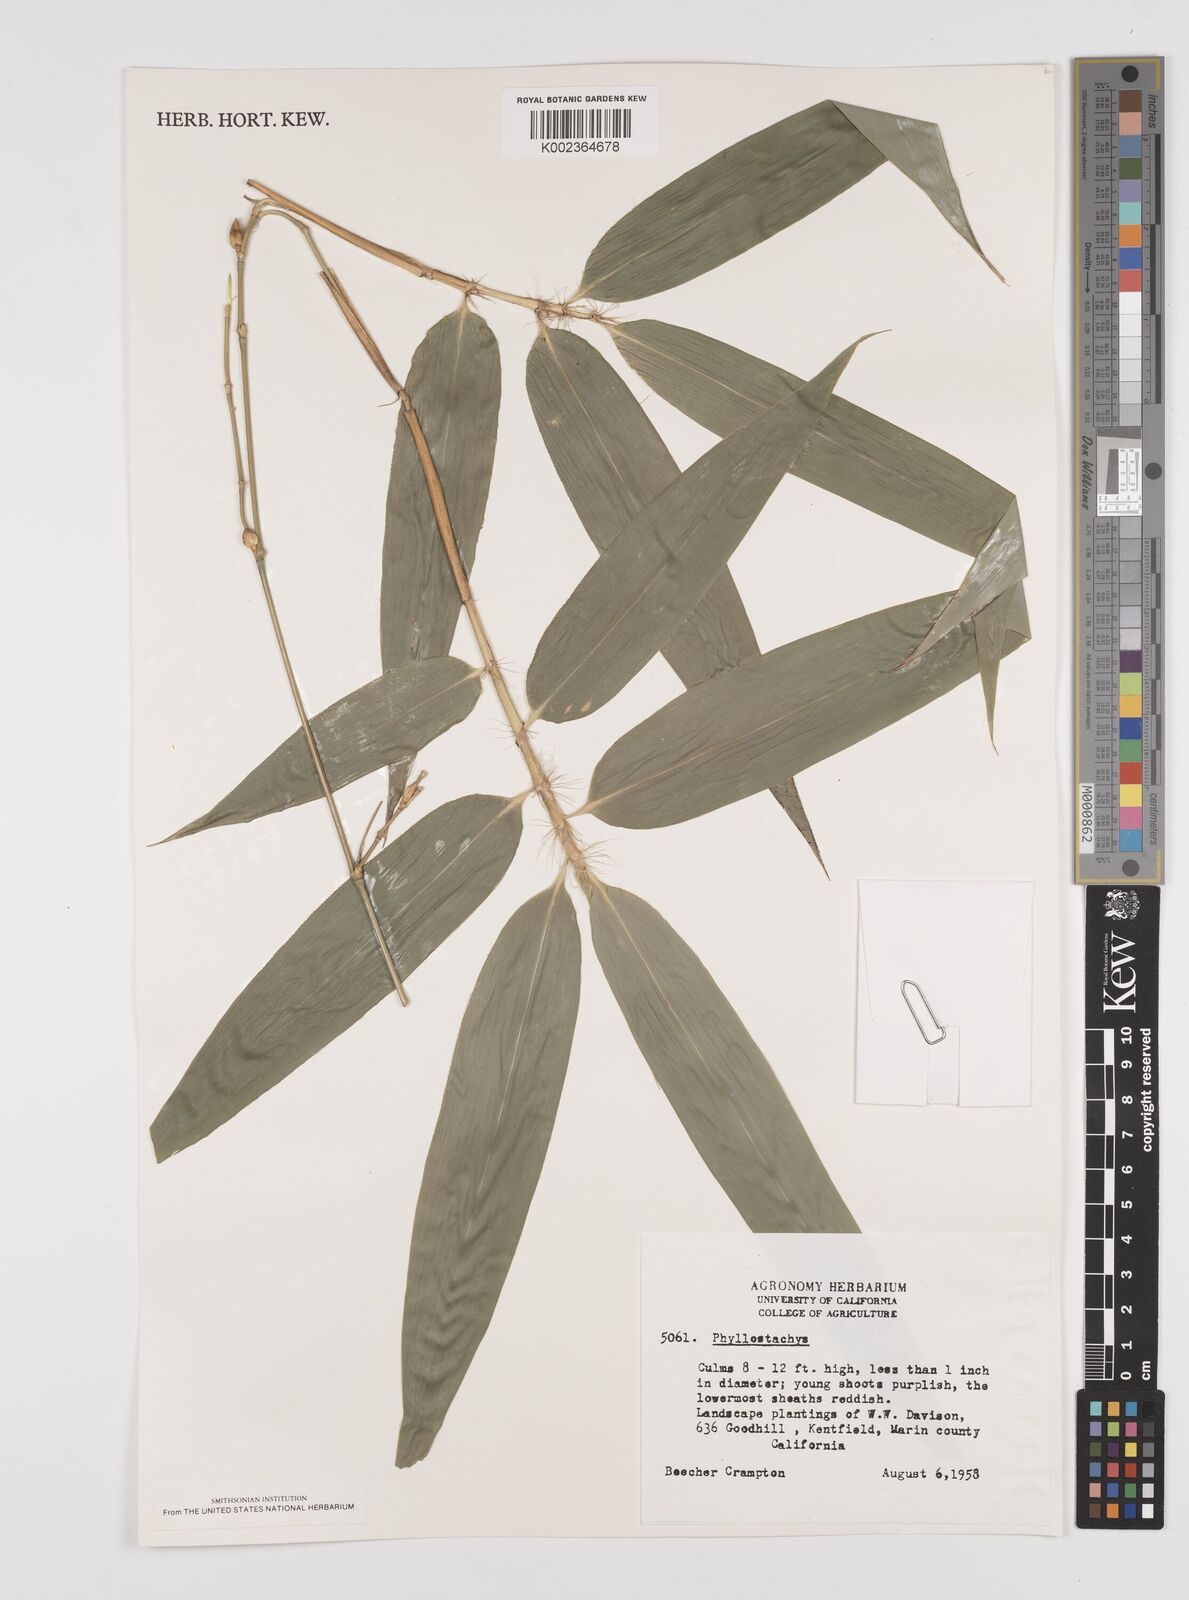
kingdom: Plantae
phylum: Tracheophyta
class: Liliopsida
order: Poales
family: Poaceae
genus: Phyllostachys
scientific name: Phyllostachys
